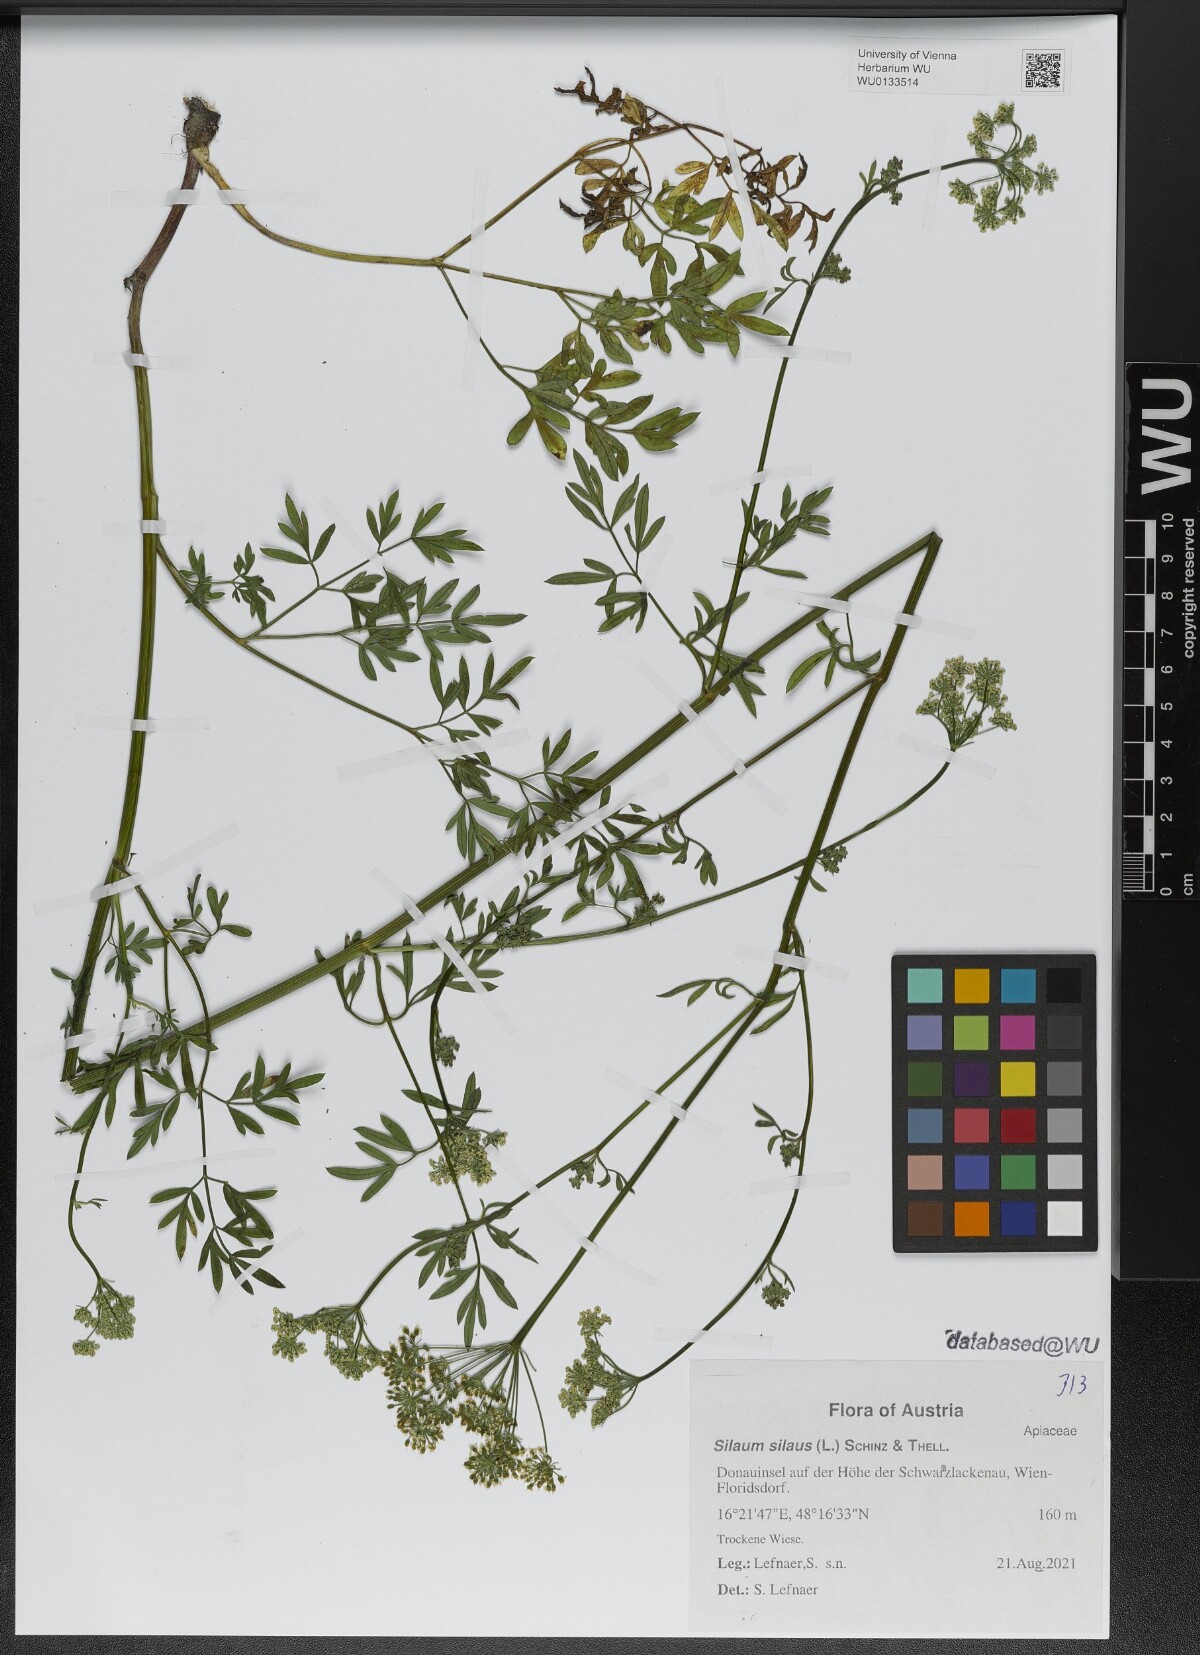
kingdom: Plantae
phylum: Tracheophyta
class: Magnoliopsida
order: Apiales
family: Apiaceae
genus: Silaum
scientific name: Silaum silaus
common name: Pepper-saxifrage
